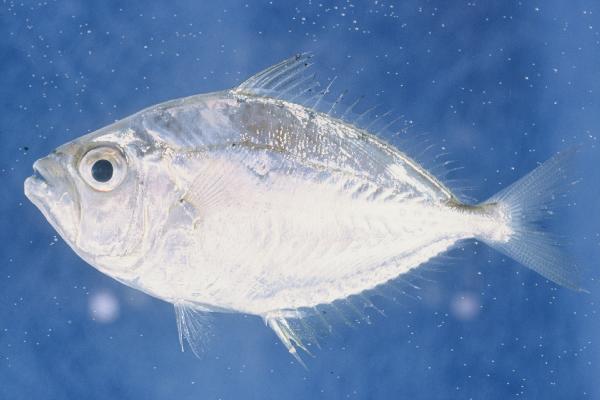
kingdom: Animalia
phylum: Chordata
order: Perciformes
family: Leiognathidae
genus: Leiognathus
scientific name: Leiognathus
